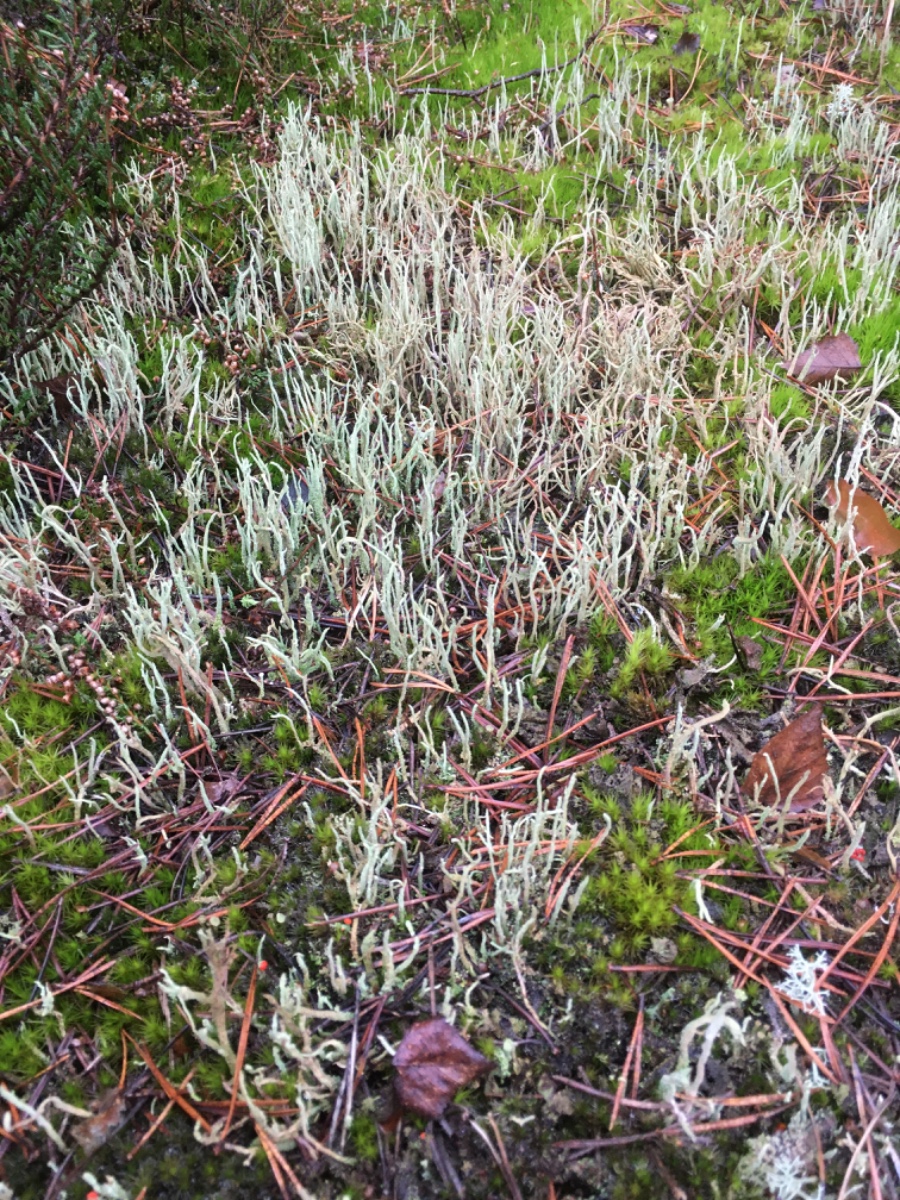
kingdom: Fungi
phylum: Ascomycota
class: Lecanoromycetes
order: Lecanorales
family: Cladoniaceae
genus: Cladonia
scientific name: Cladonia subulata
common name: spids bægerlav
